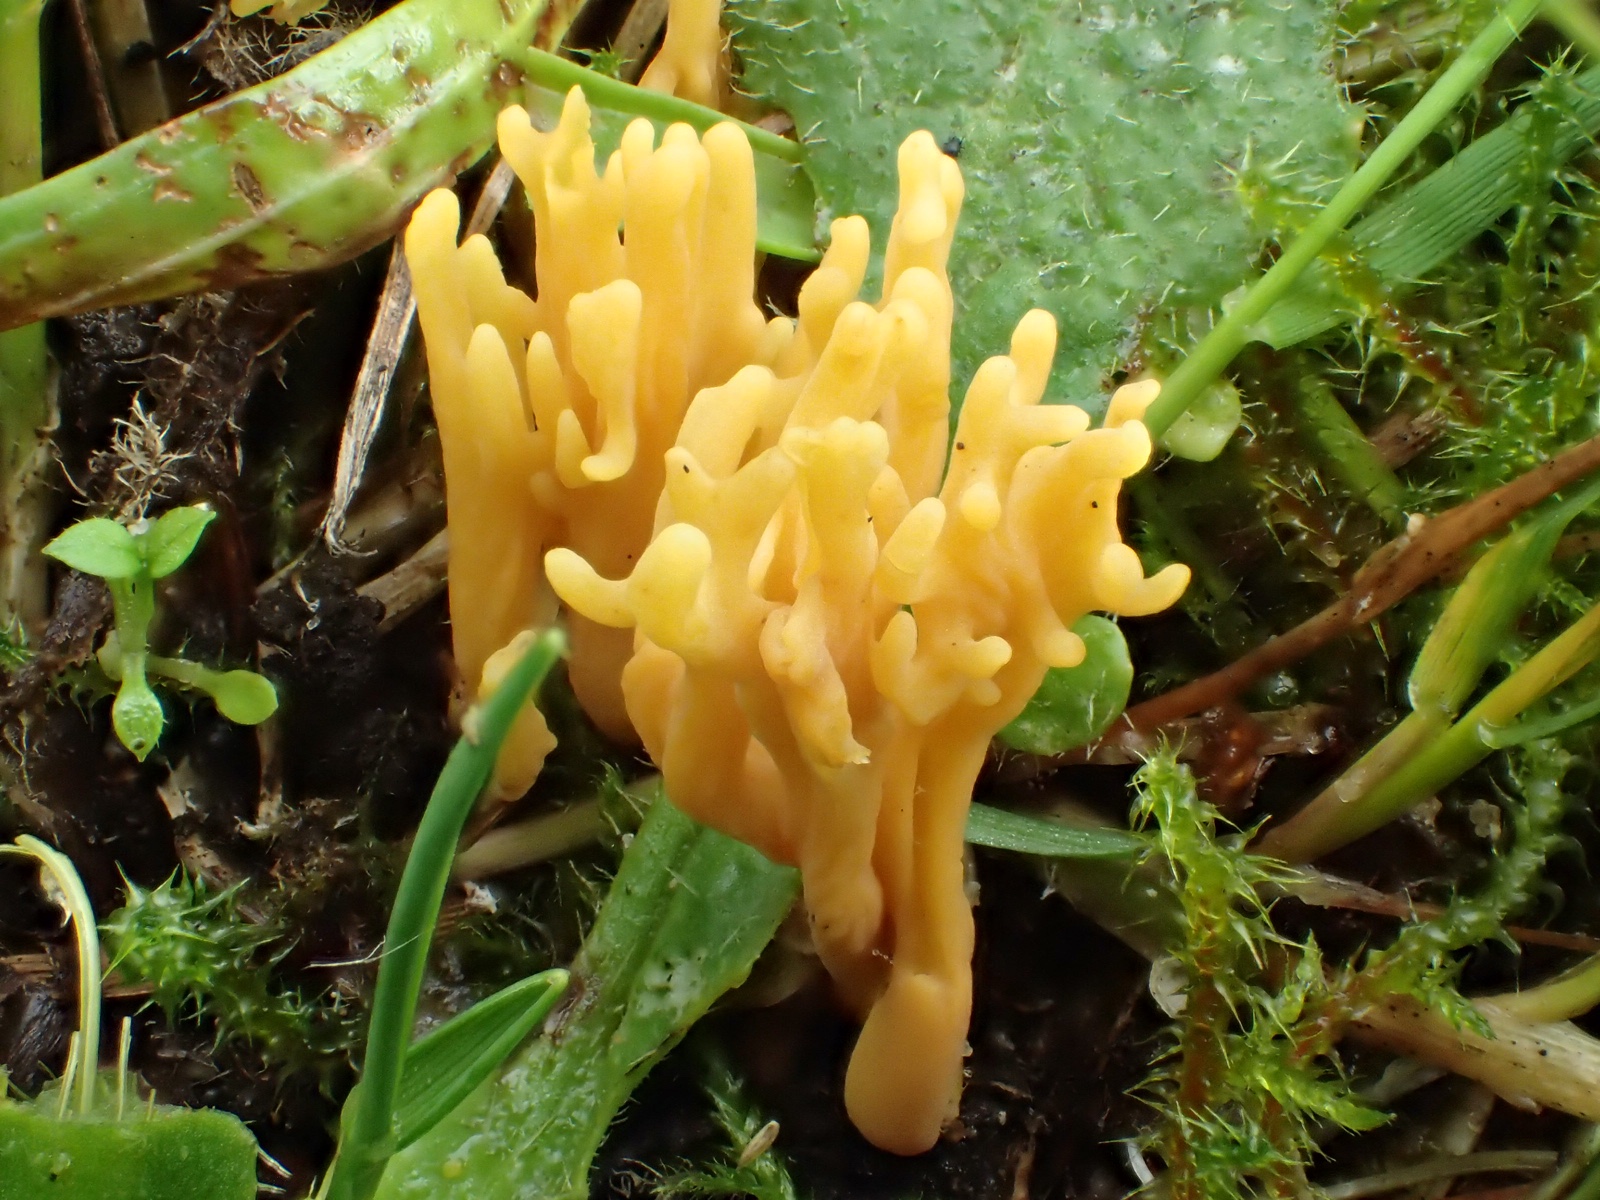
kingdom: Fungi
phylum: Basidiomycota
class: Agaricomycetes
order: Agaricales
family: Clavariaceae
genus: Clavulinopsis
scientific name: Clavulinopsis corniculata
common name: eng-køllesvamp
